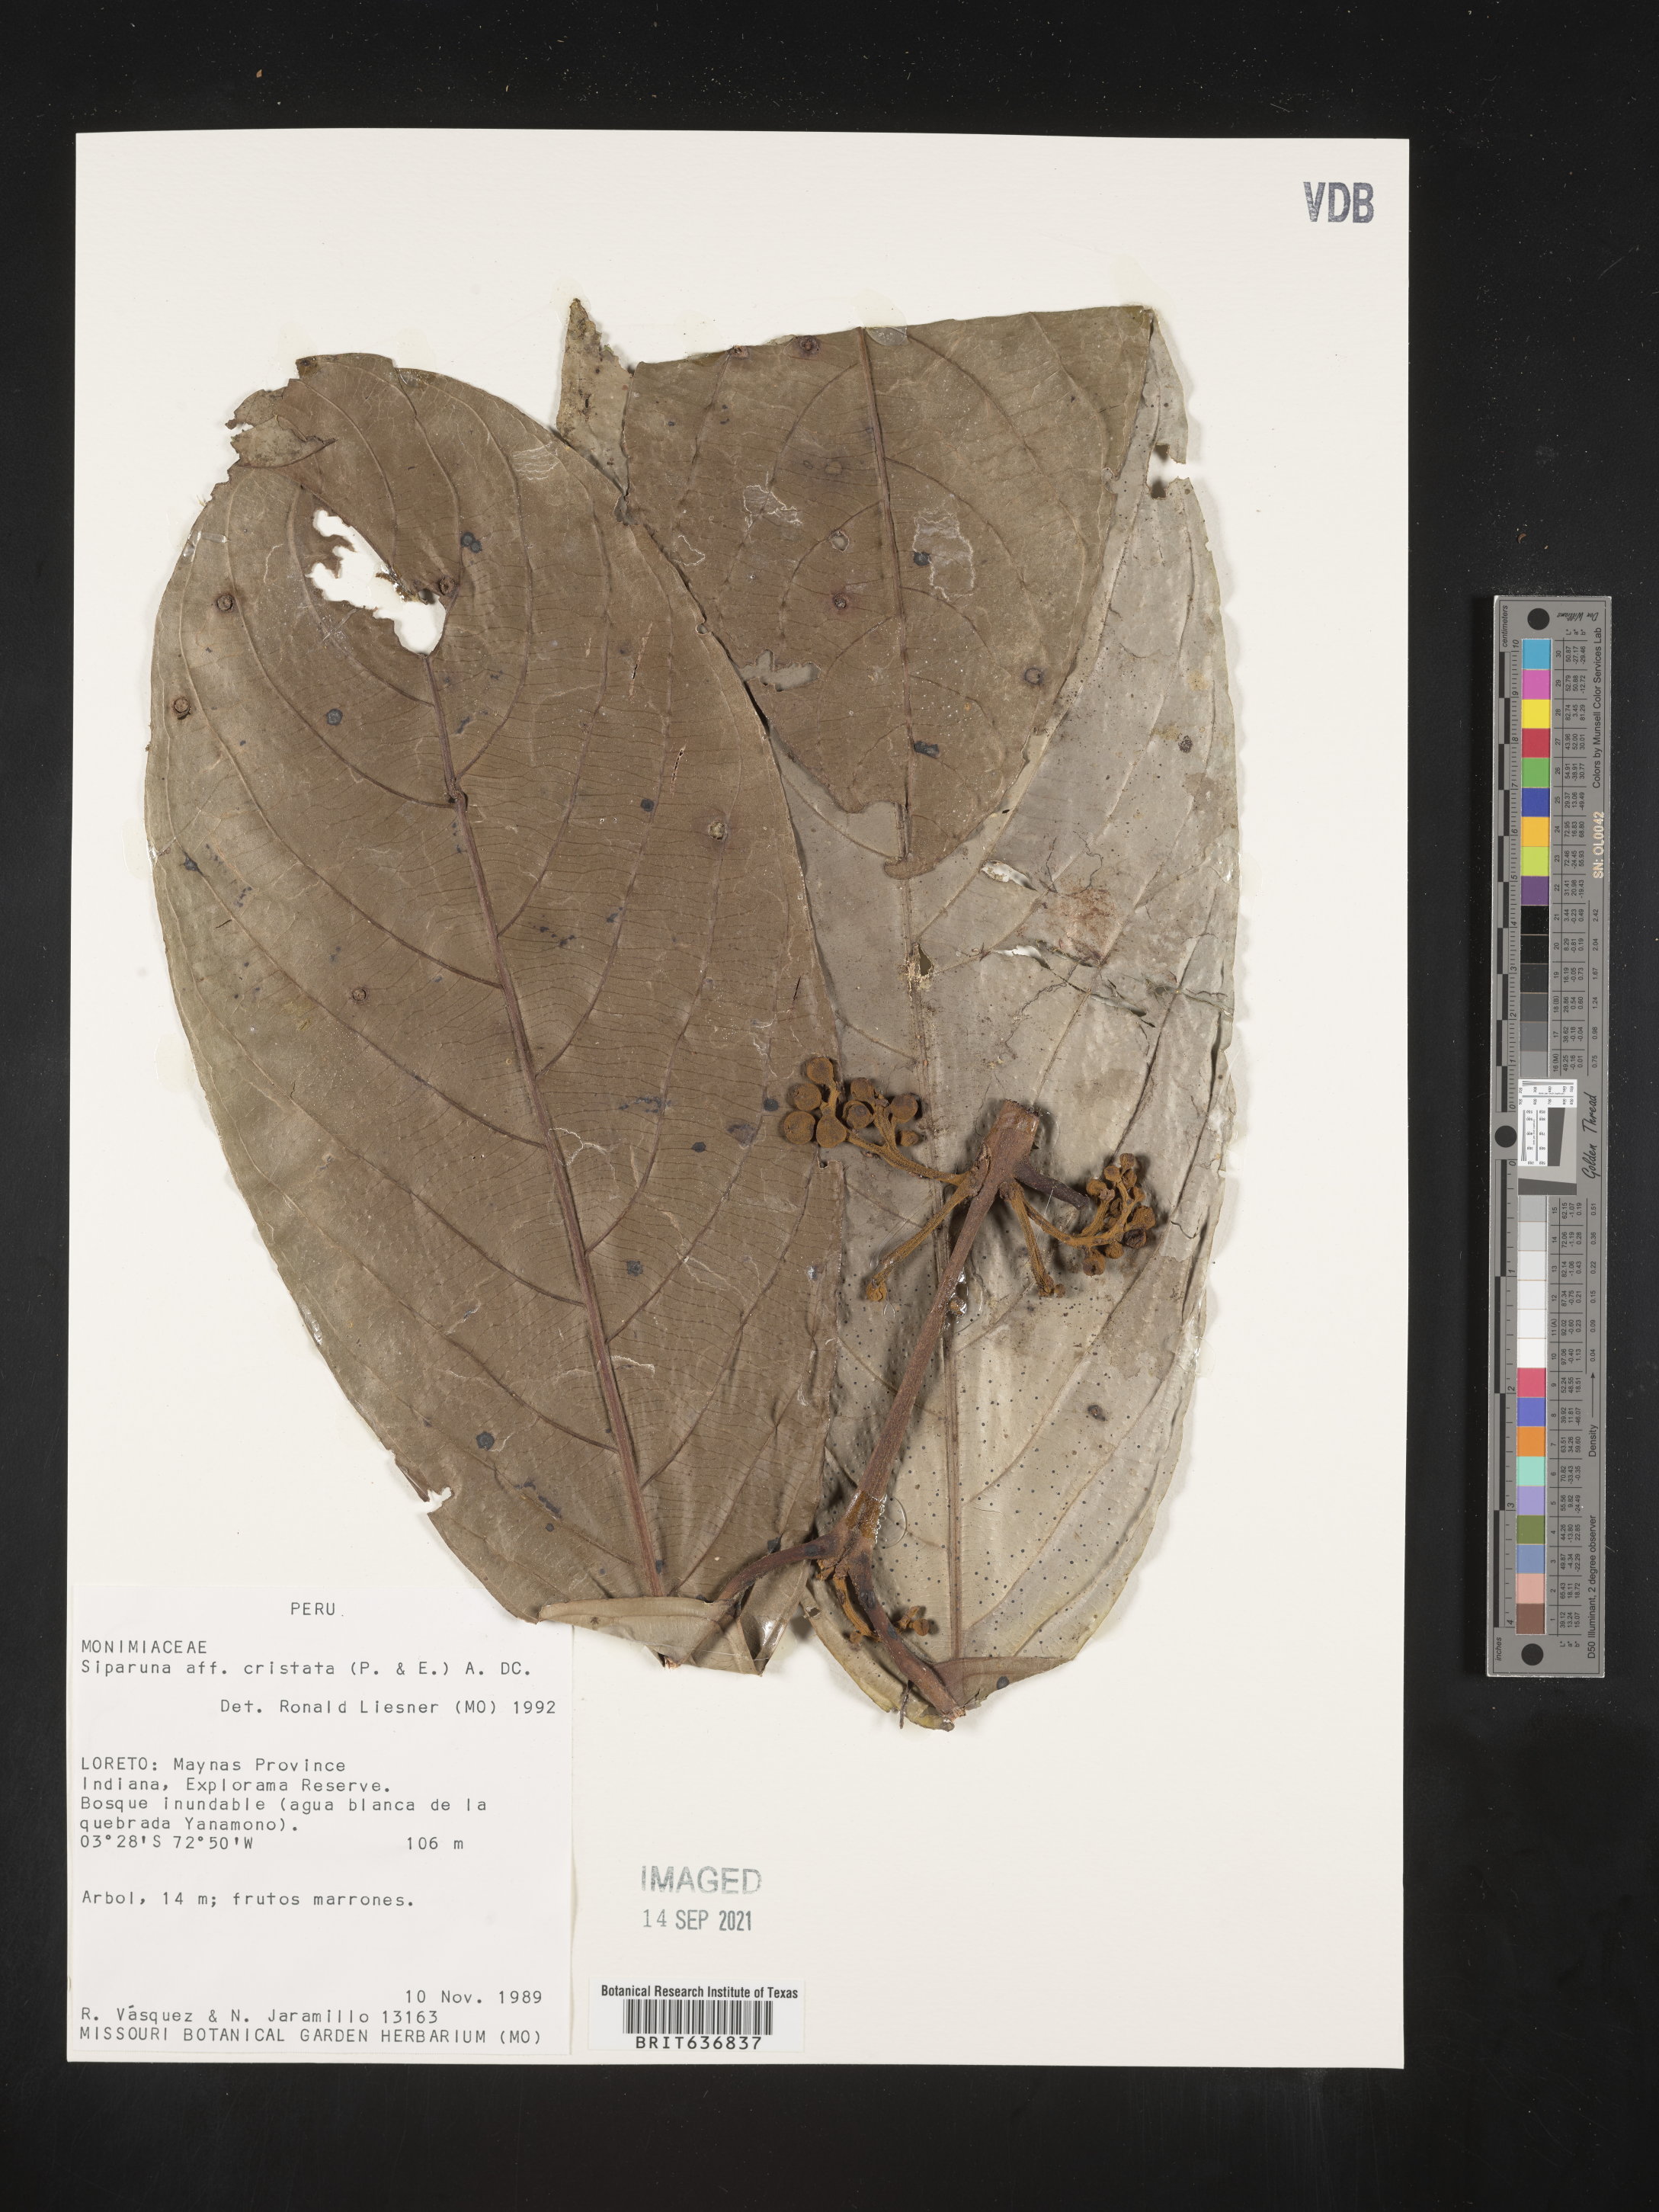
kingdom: Plantae
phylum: Tracheophyta
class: Magnoliopsida
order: Laurales
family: Siparunaceae
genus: Siparuna
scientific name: Siparuna
